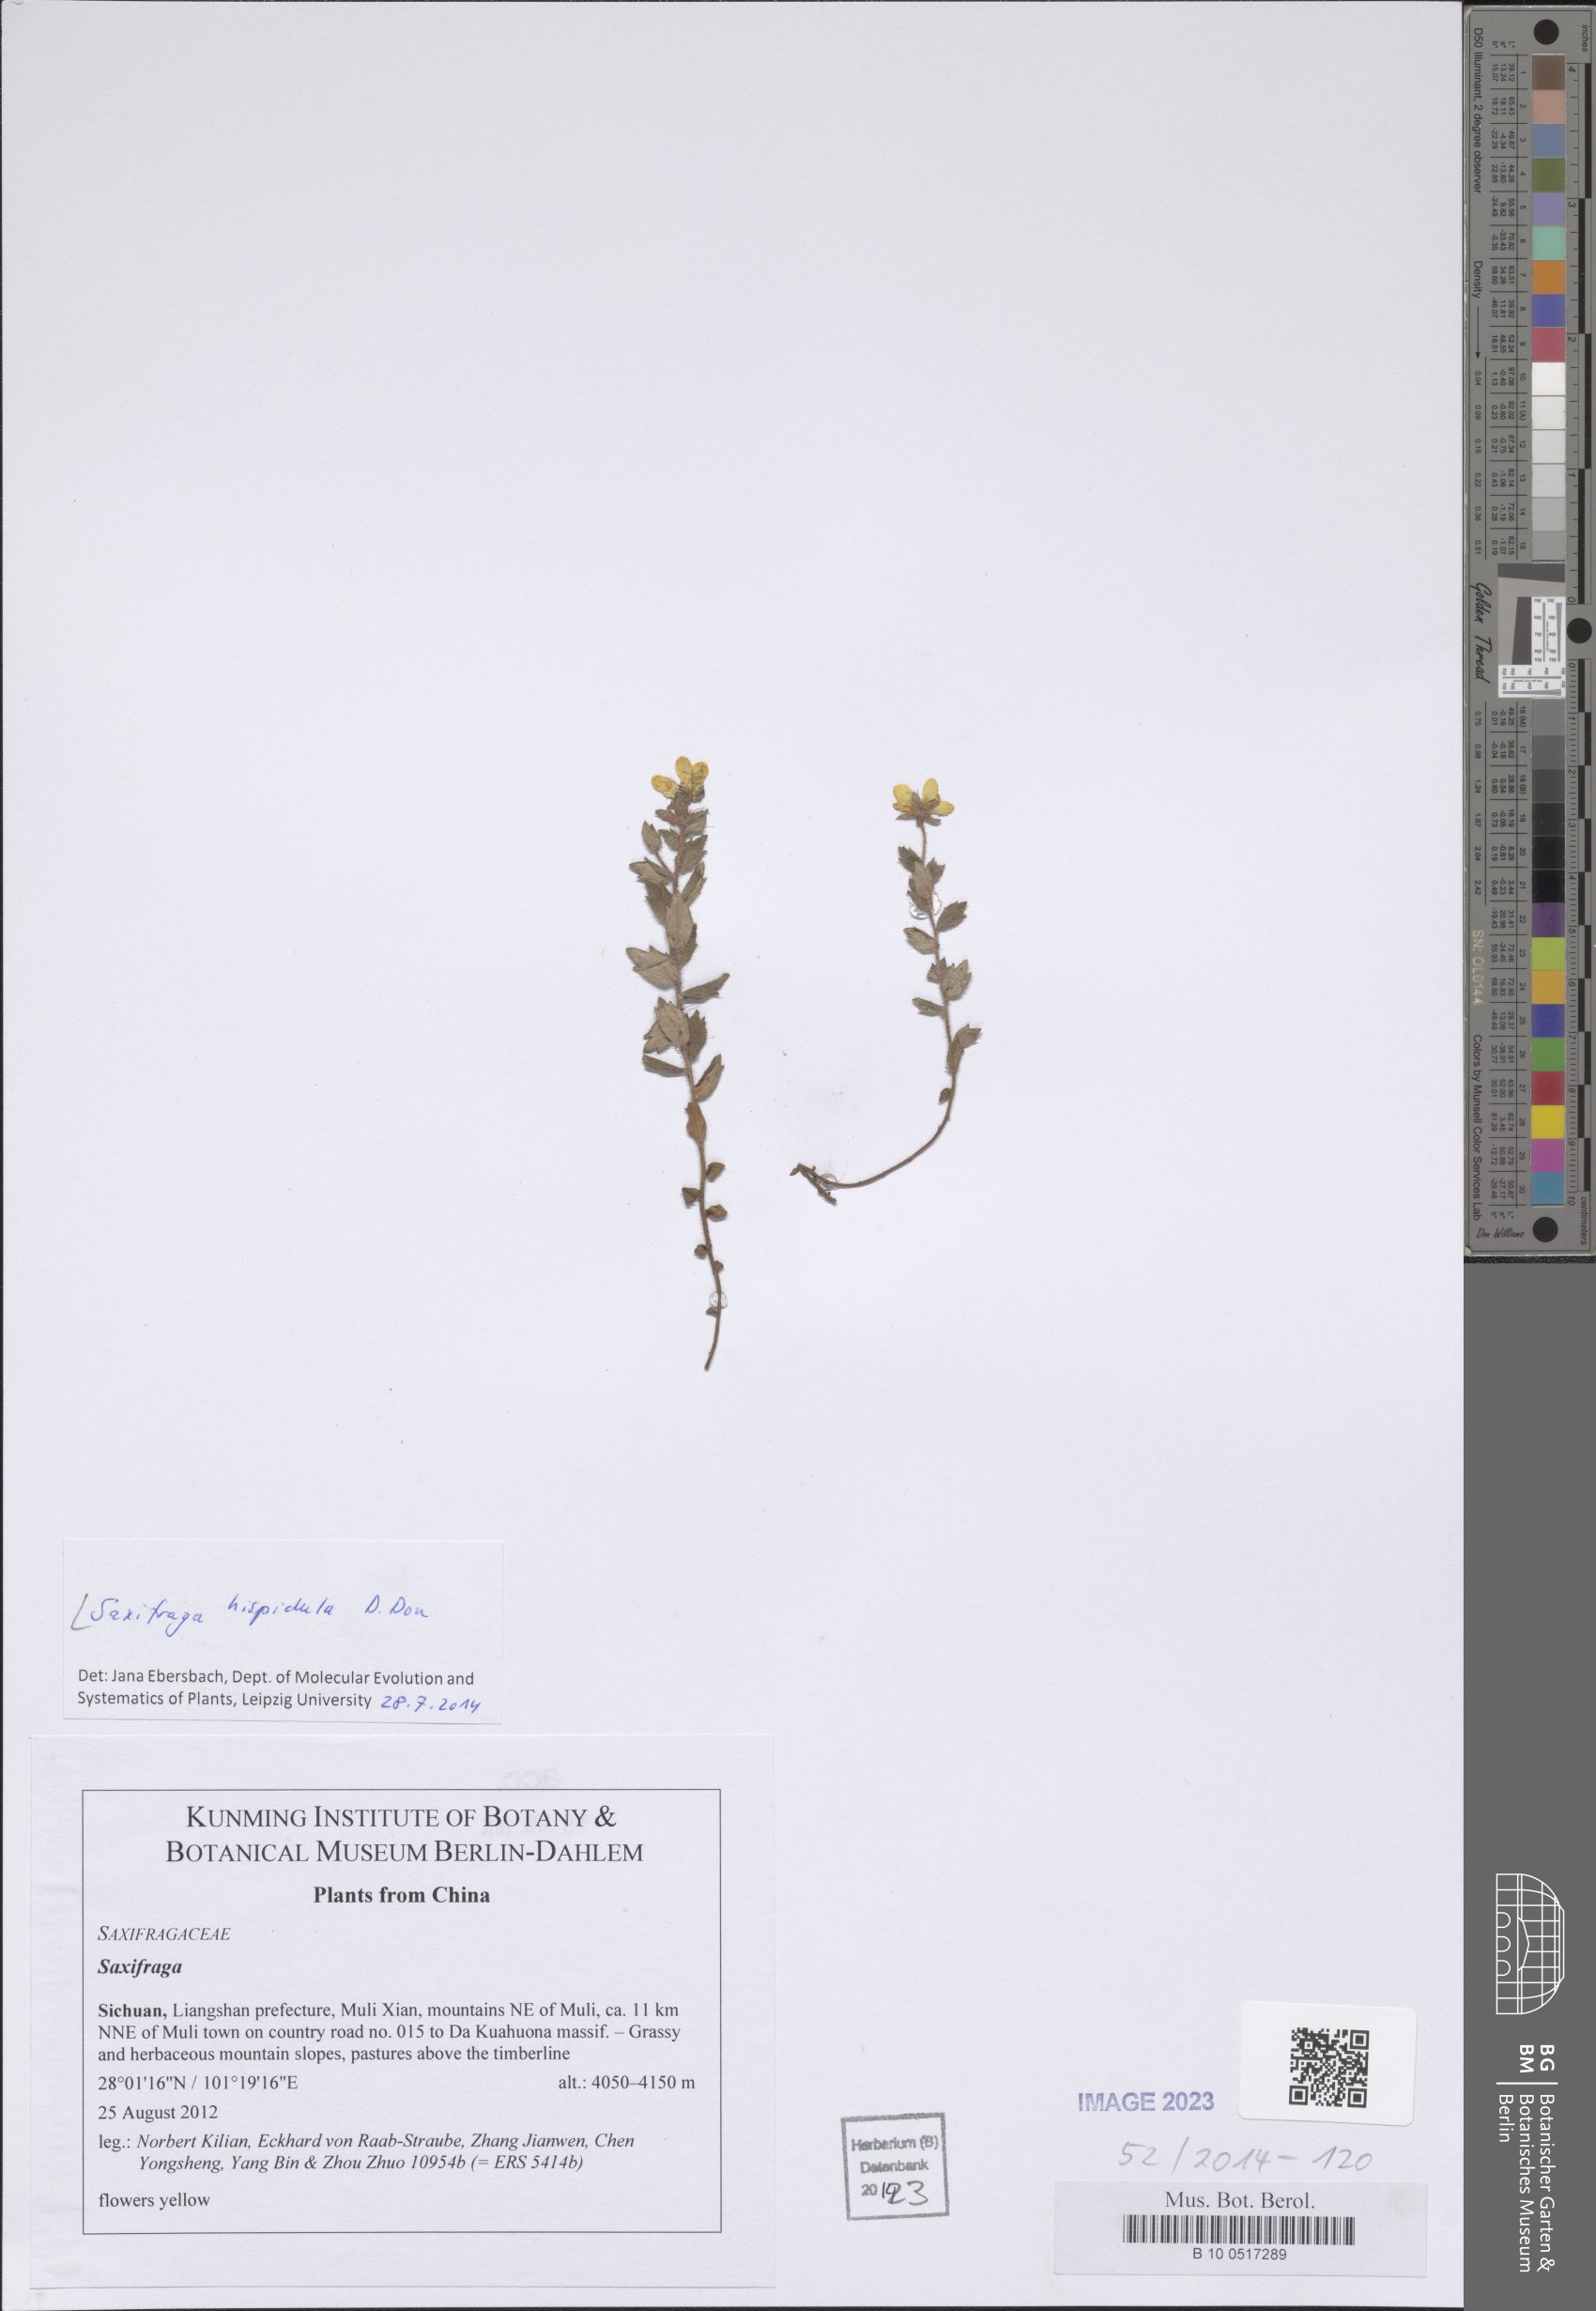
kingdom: Plantae
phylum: Tracheophyta
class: Magnoliopsida
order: Saxifragales
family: Saxifragaceae
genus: Saxifraga
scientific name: Saxifraga hispidula
